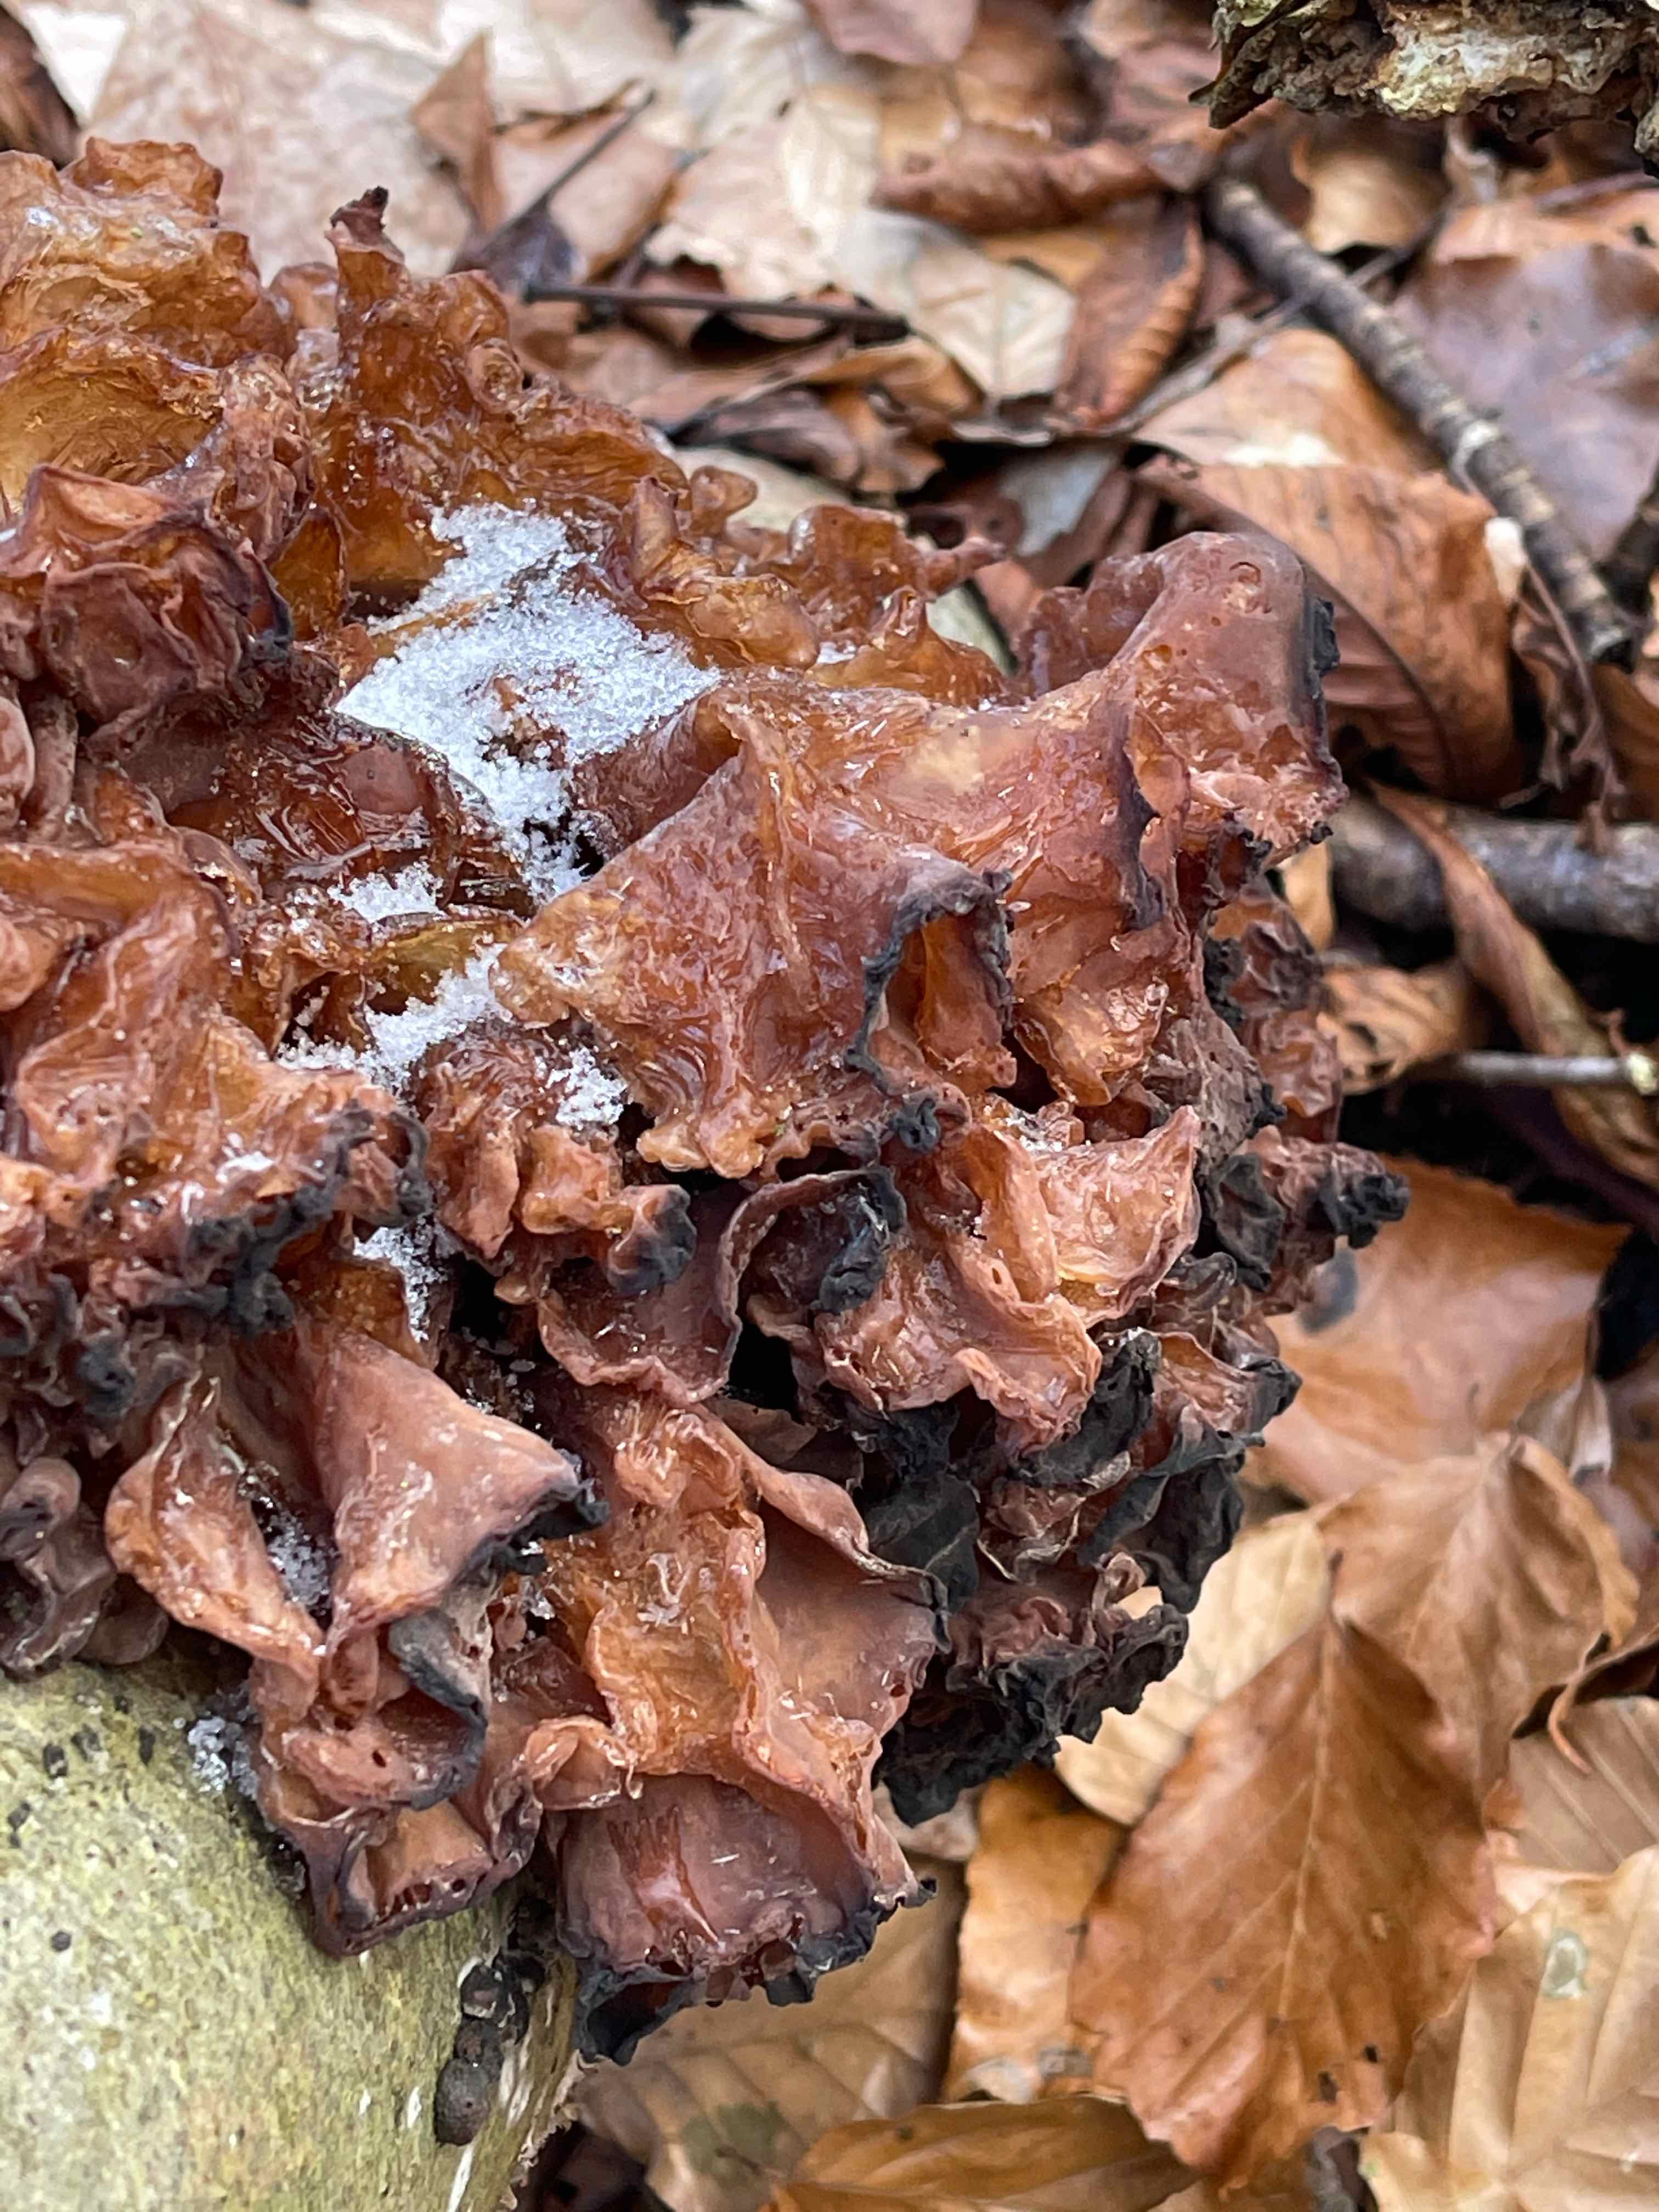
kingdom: Fungi
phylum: Basidiomycota
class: Tremellomycetes
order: Tremellales
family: Tremellaceae
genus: Phaeotremella
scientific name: Phaeotremella frondosa
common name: kæmpe-bævresvamp
